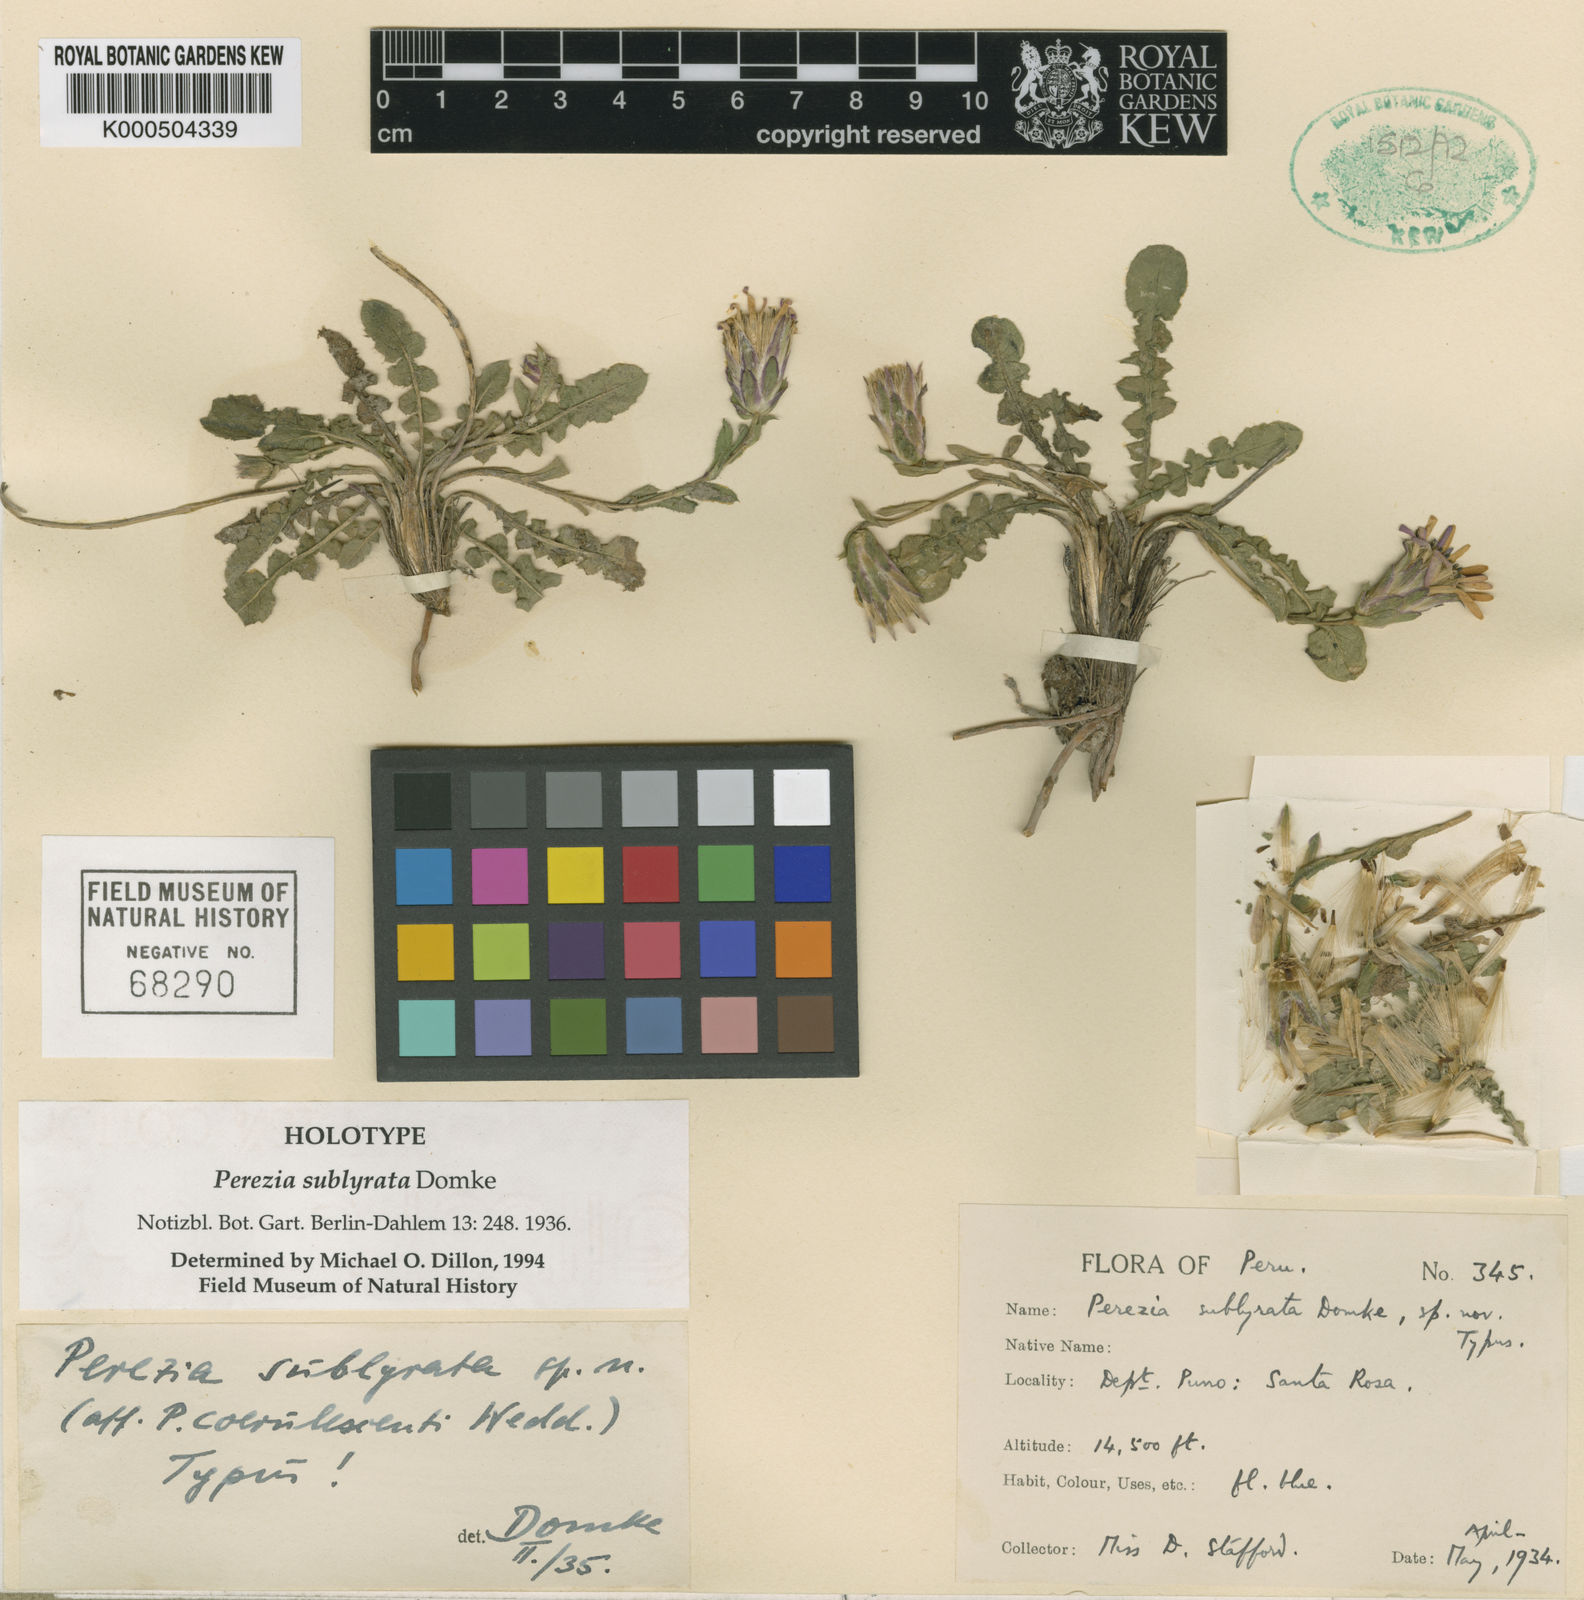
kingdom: Plantae
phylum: Tracheophyta
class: Magnoliopsida
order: Asterales
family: Asteraceae
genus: Perezia
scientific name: Perezia pungens
